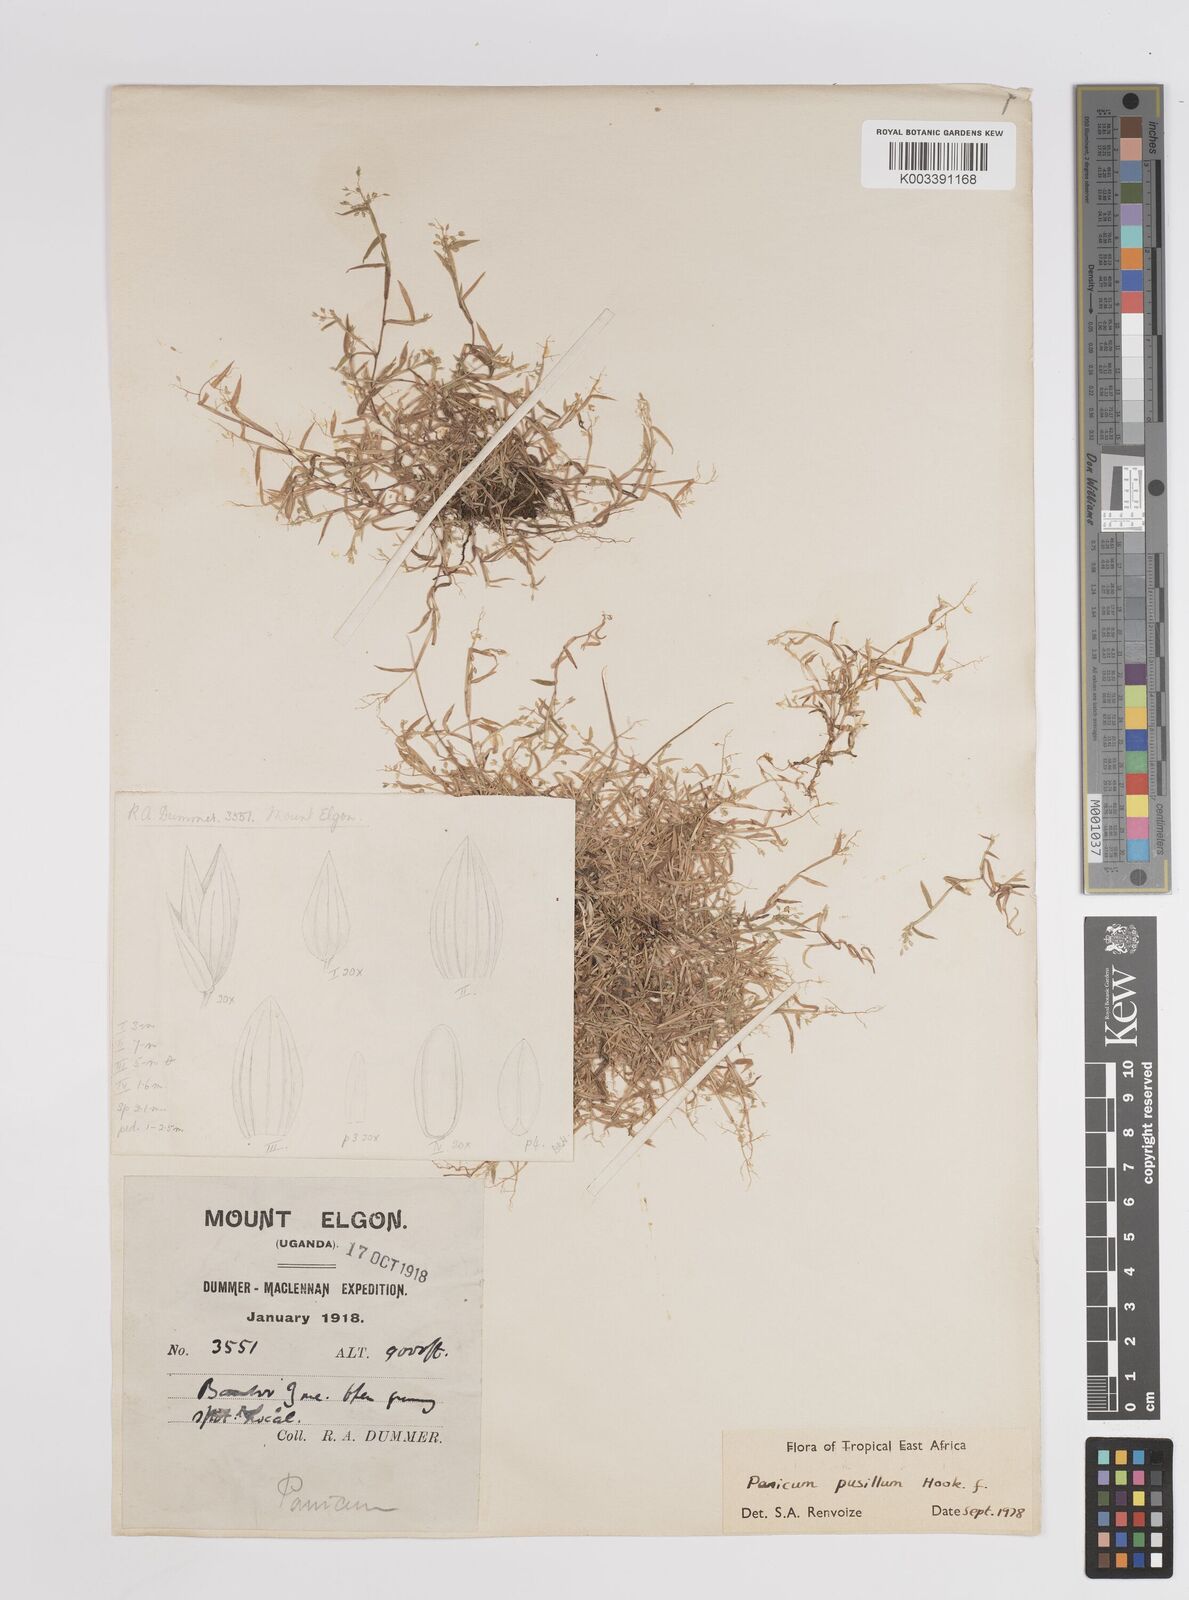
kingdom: Plantae
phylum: Tracheophyta
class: Liliopsida
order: Poales
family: Poaceae
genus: Panicum
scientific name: Panicum pusillum
